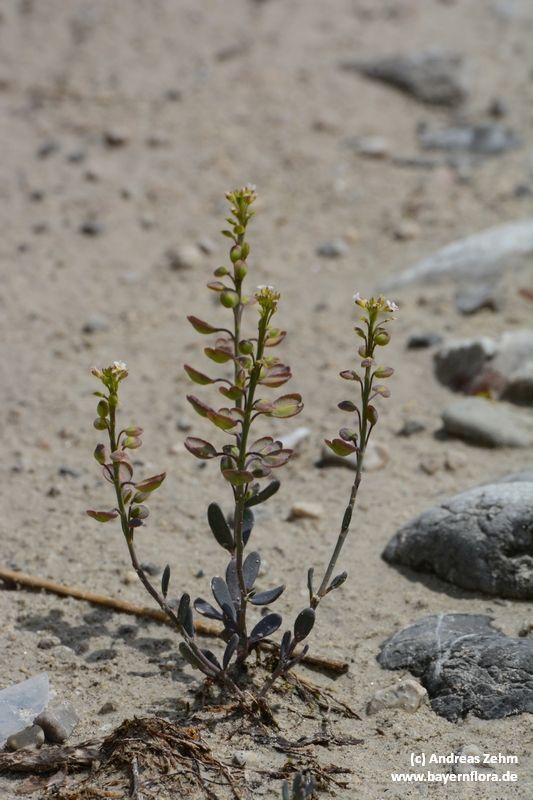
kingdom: Plantae
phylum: Tracheophyta
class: Magnoliopsida
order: Brassicales
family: Brassicaceae
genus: Aethionema
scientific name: Aethionema saxatile
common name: Burnt candytuft
